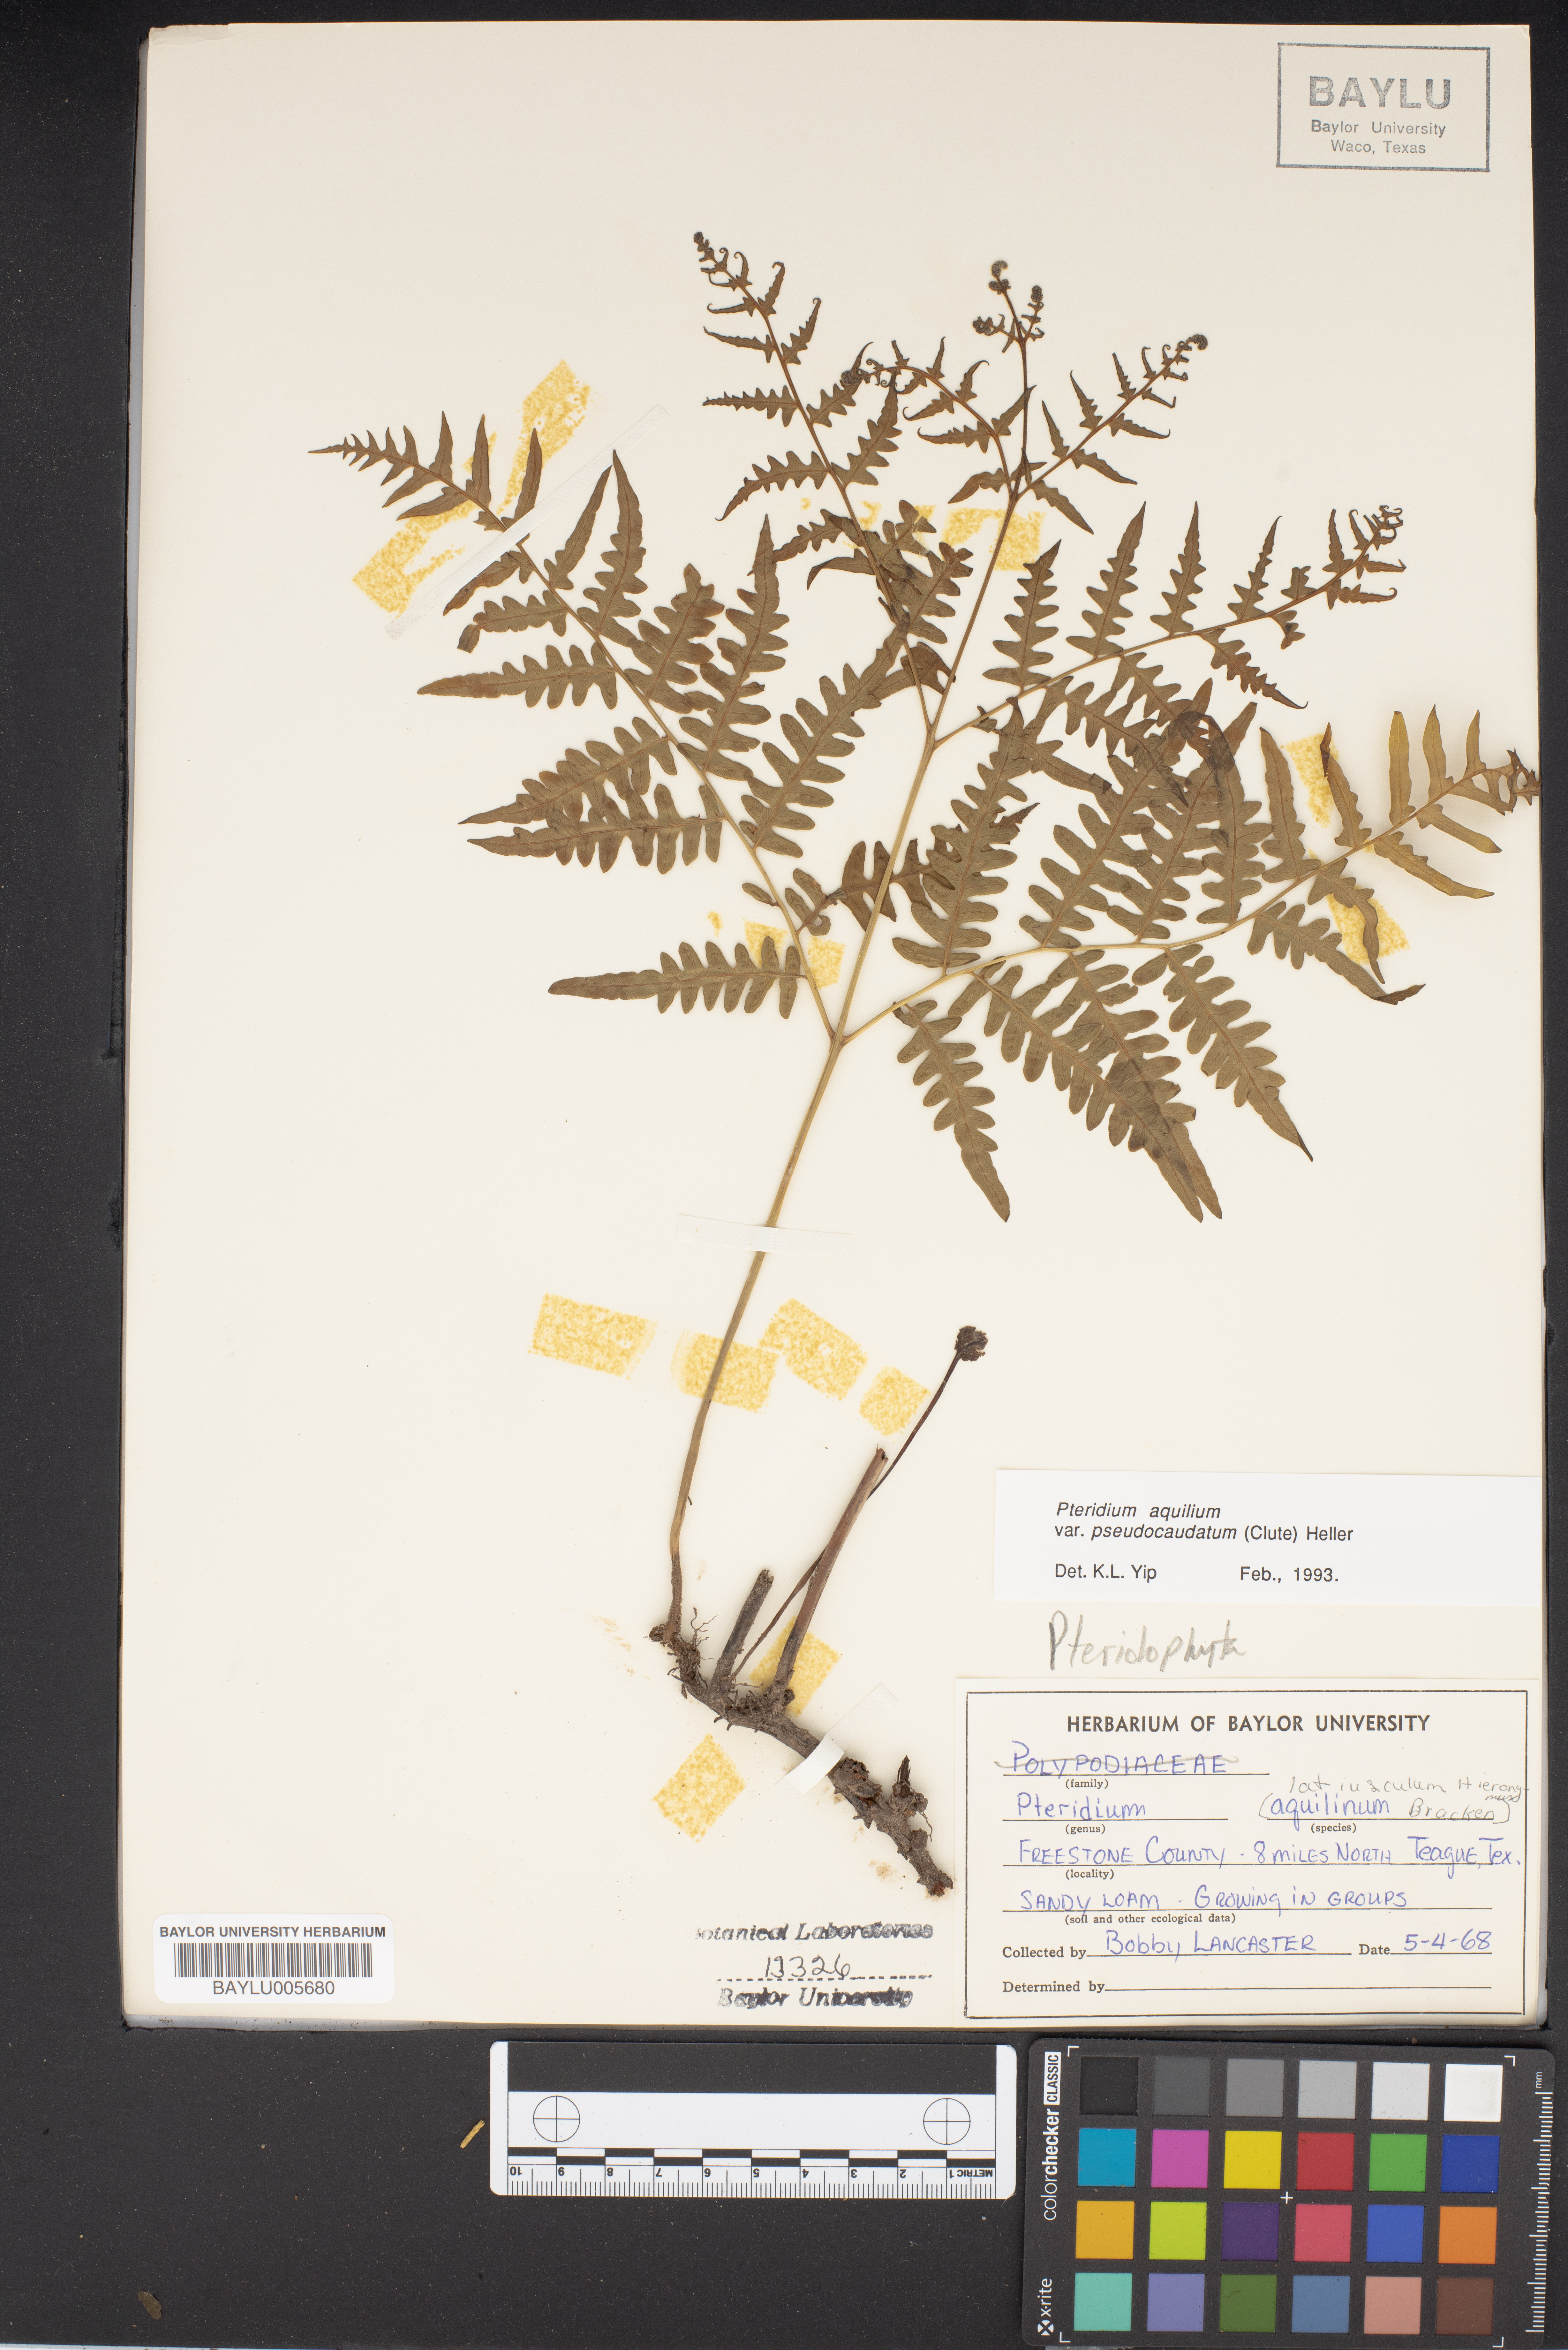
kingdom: Plantae
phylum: Tracheophyta
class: Polypodiopsida
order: Polypodiales
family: Dennstaedtiaceae
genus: Pteridium
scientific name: Pteridium aquilinum
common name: Bracken
